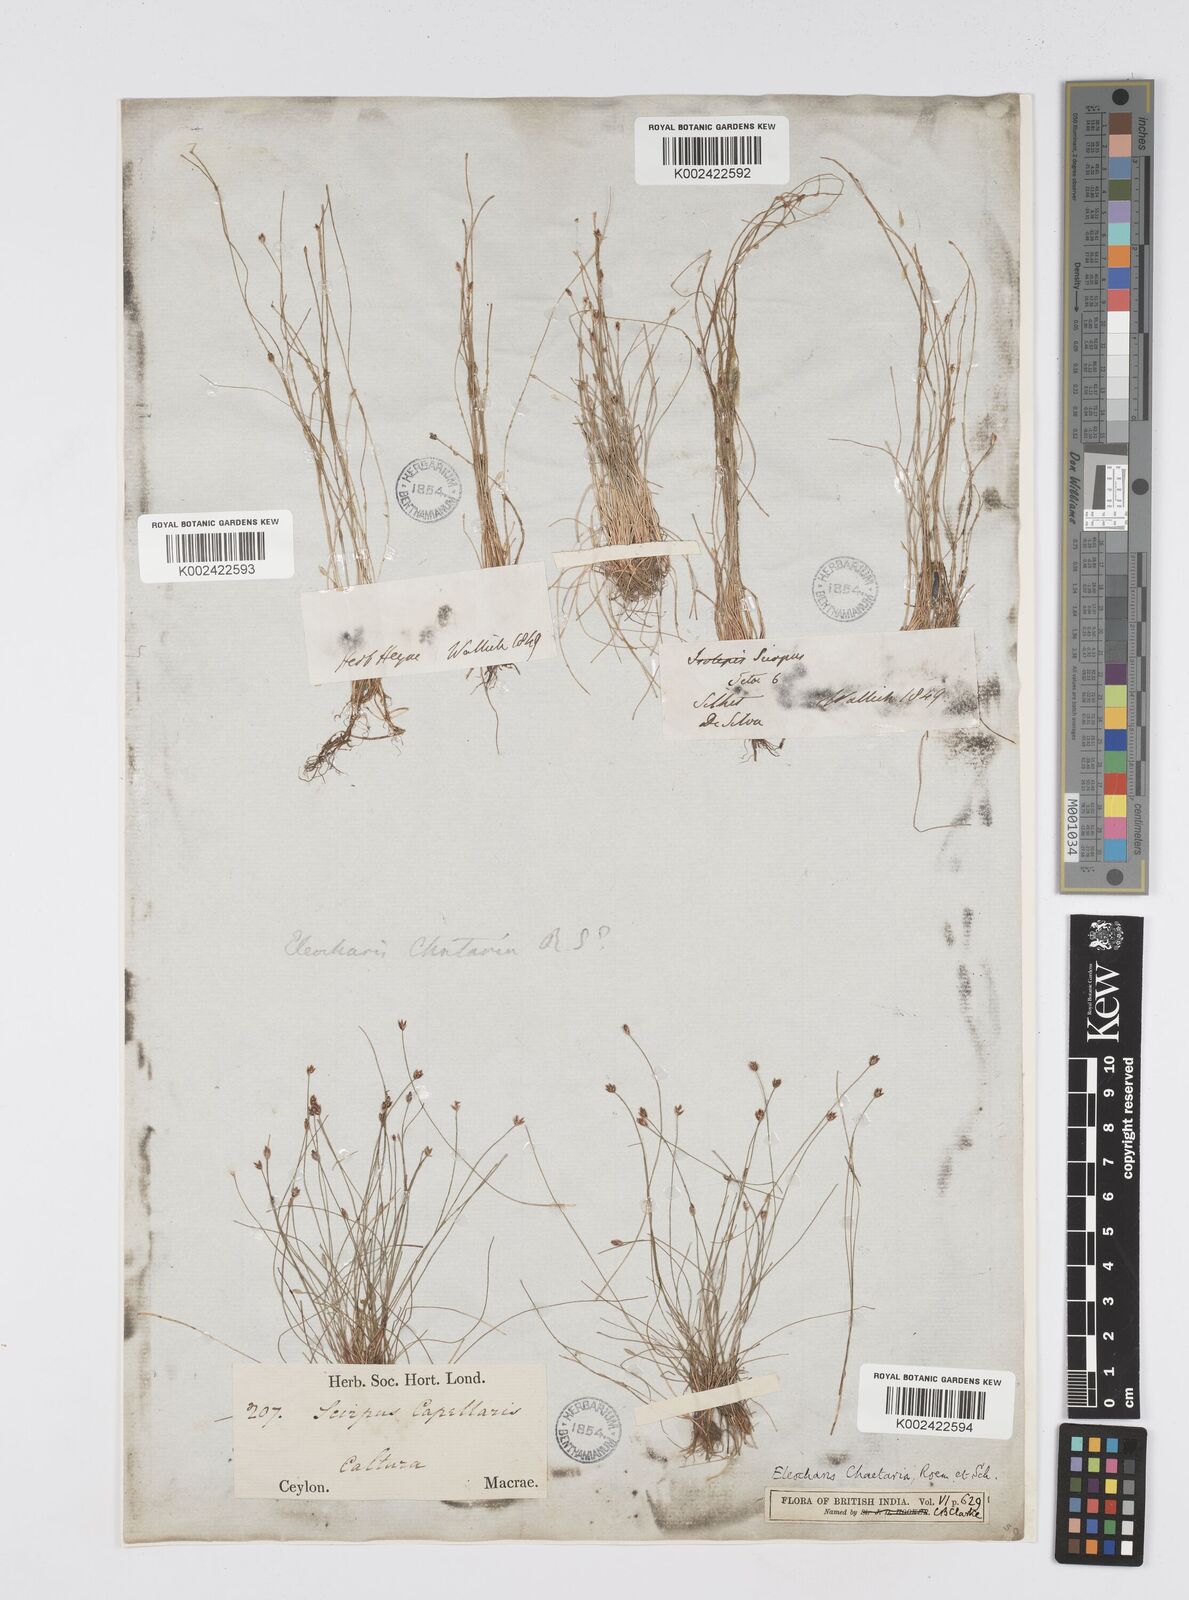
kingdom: Plantae
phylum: Tracheophyta
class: Liliopsida
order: Poales
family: Cyperaceae
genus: Eleocharis
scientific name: Eleocharis retroflexa
